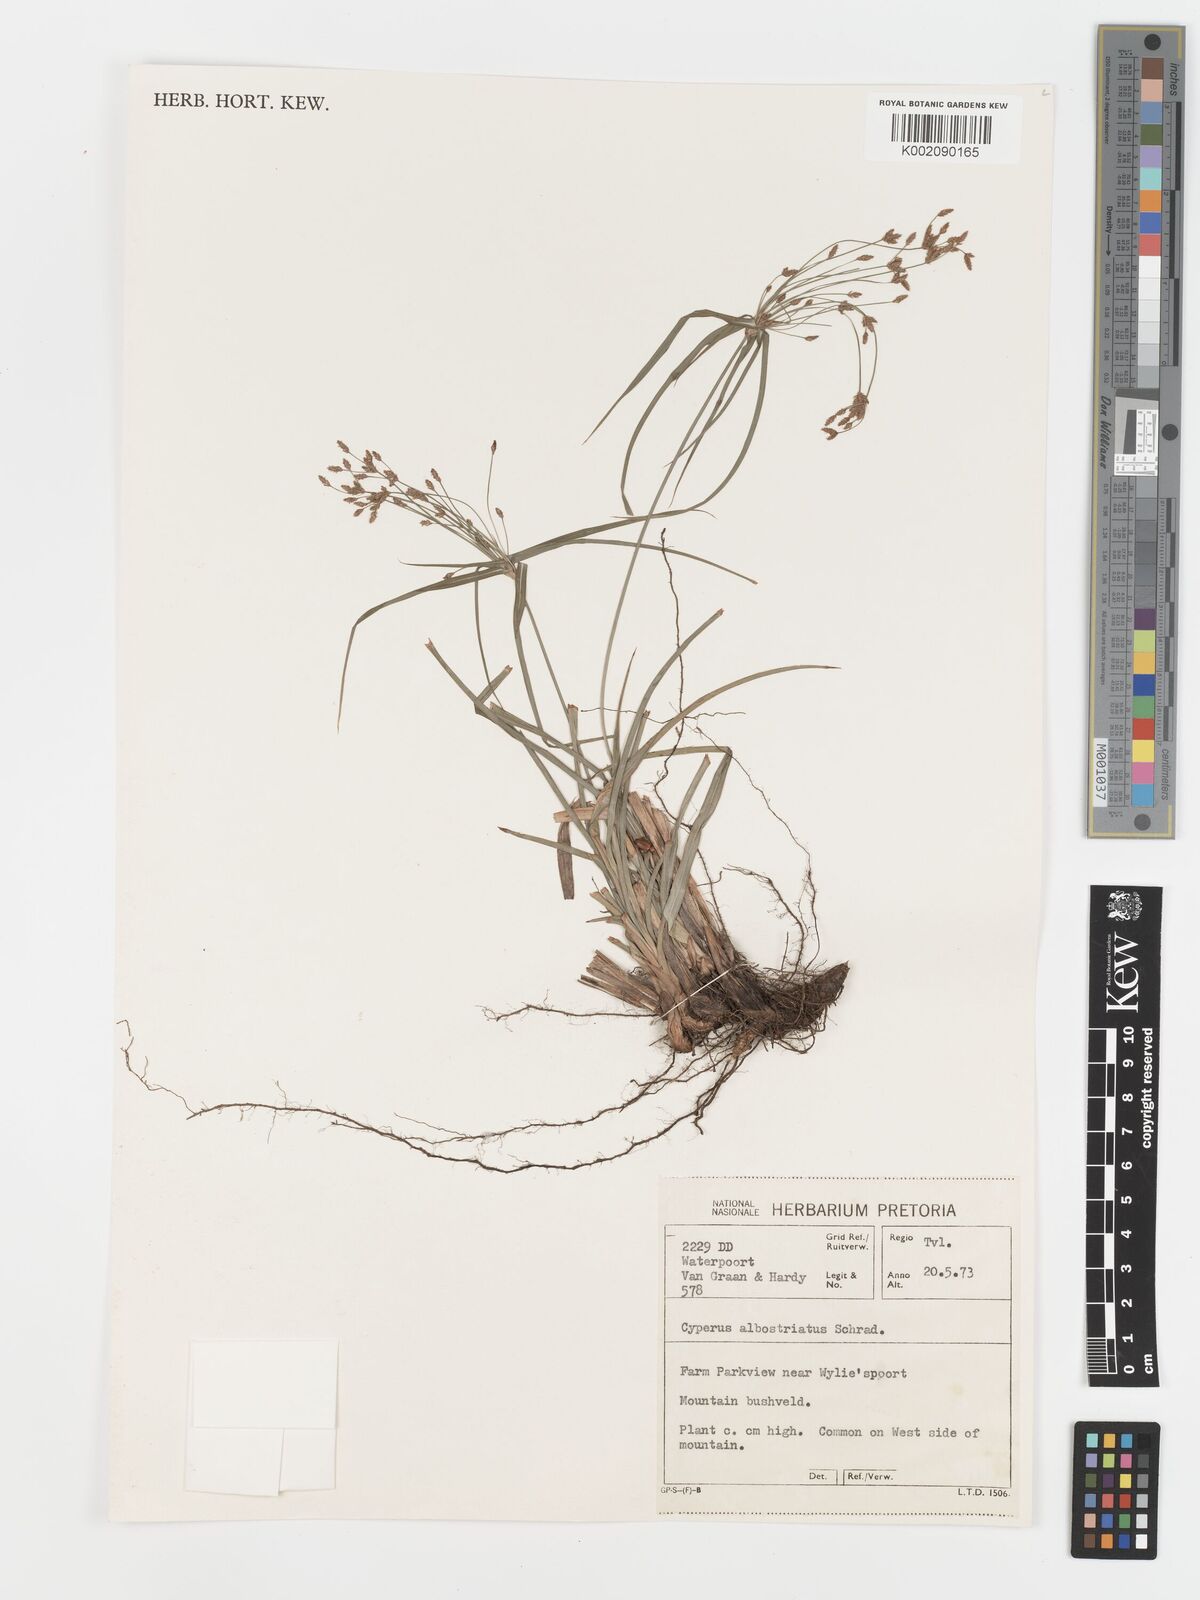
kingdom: Plantae
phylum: Tracheophyta
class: Liliopsida
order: Poales
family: Cyperaceae
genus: Cyperus
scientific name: Cyperus albostriatus
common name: Dwarf umbrella-grass
